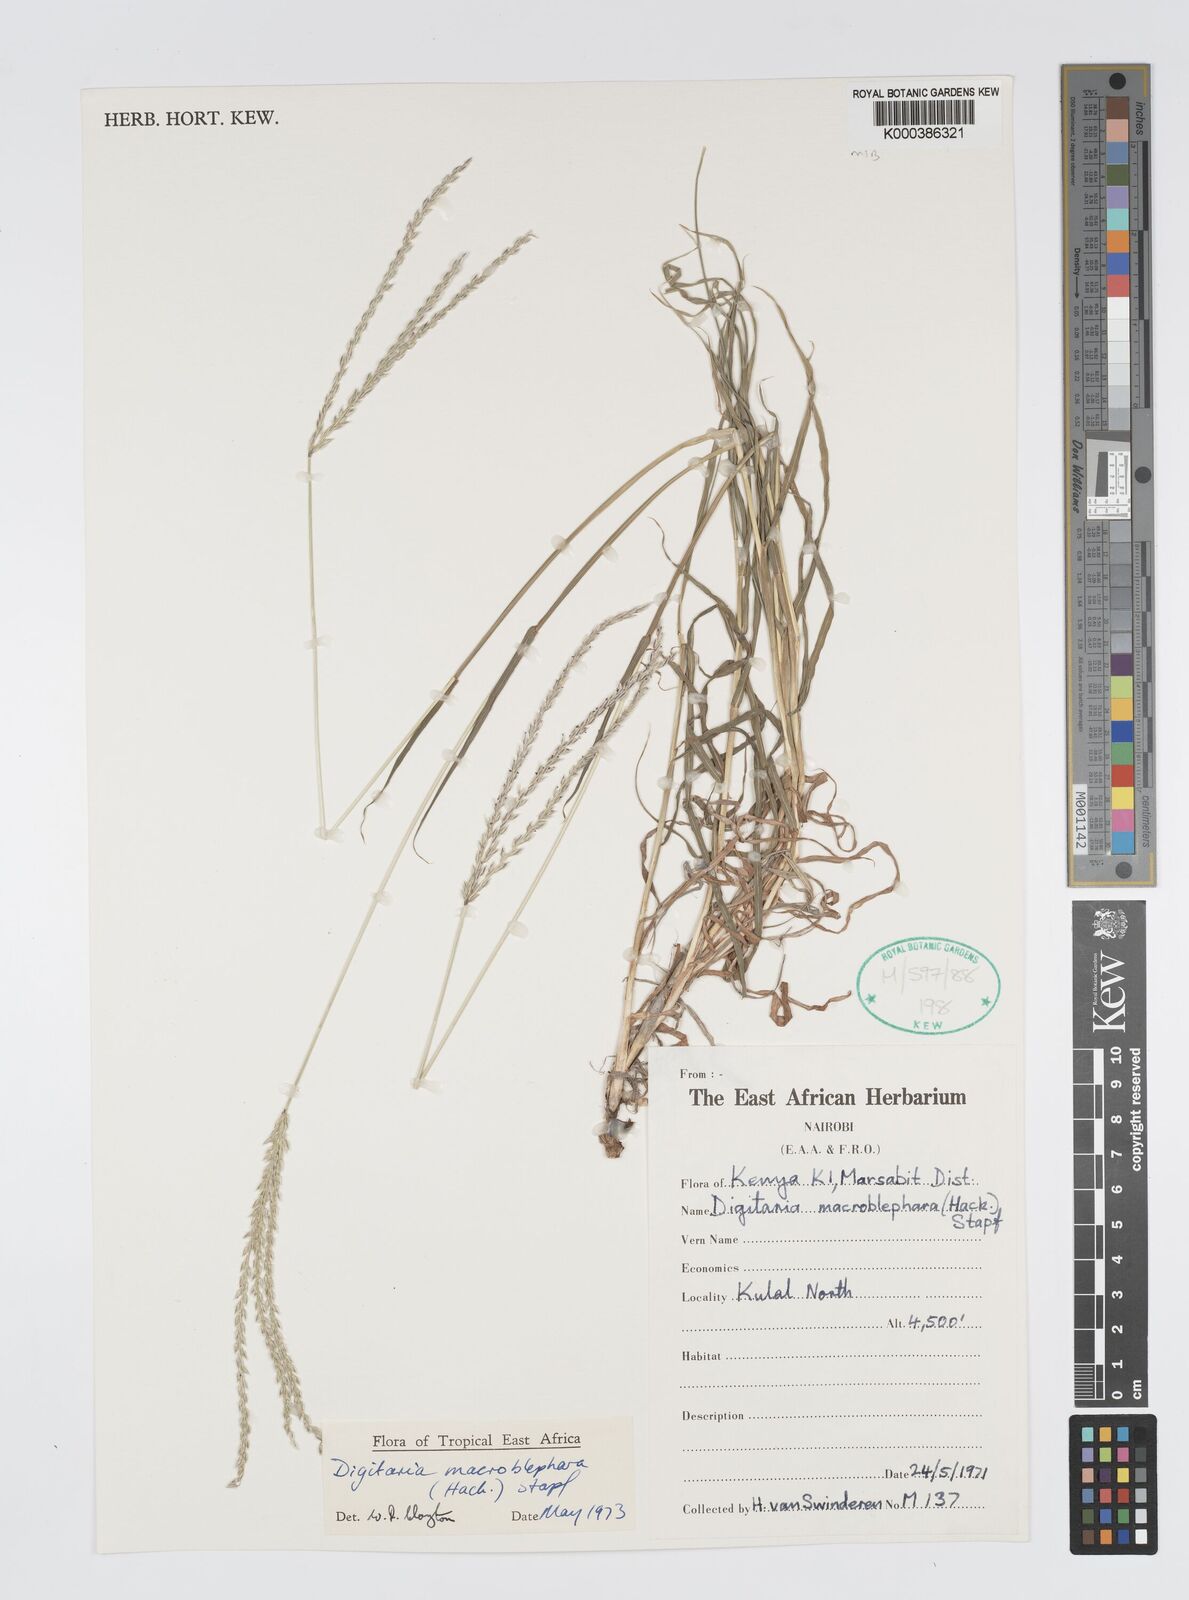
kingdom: Plantae
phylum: Tracheophyta
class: Liliopsida
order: Poales
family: Poaceae
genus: Digitaria
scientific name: Digitaria macroblephara
